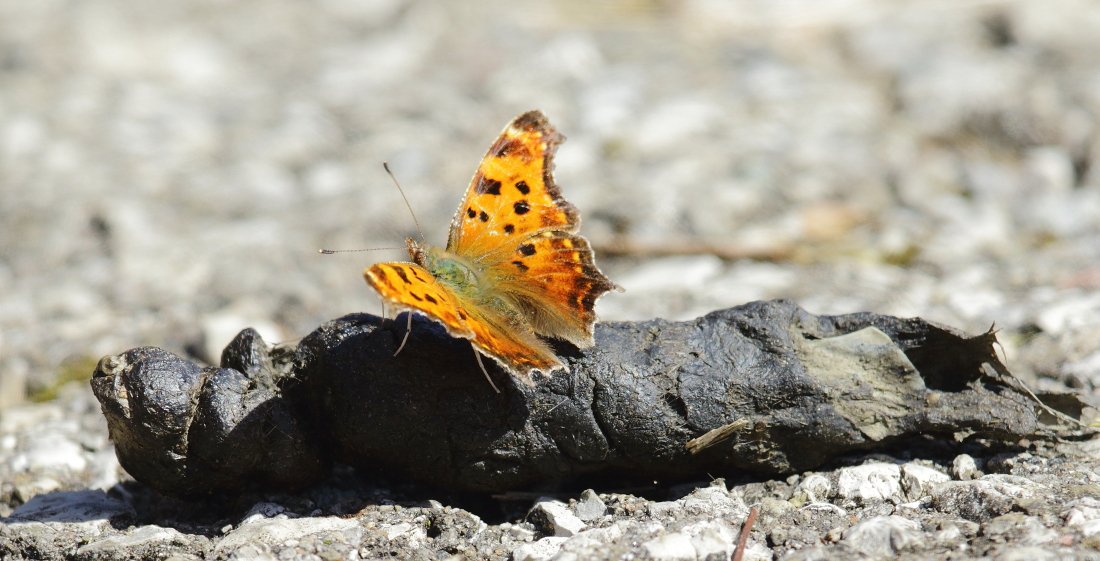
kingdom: Animalia
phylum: Arthropoda
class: Insecta
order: Lepidoptera
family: Nymphalidae
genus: Polygonia
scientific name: Polygonia comma
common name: Eastern Comma
